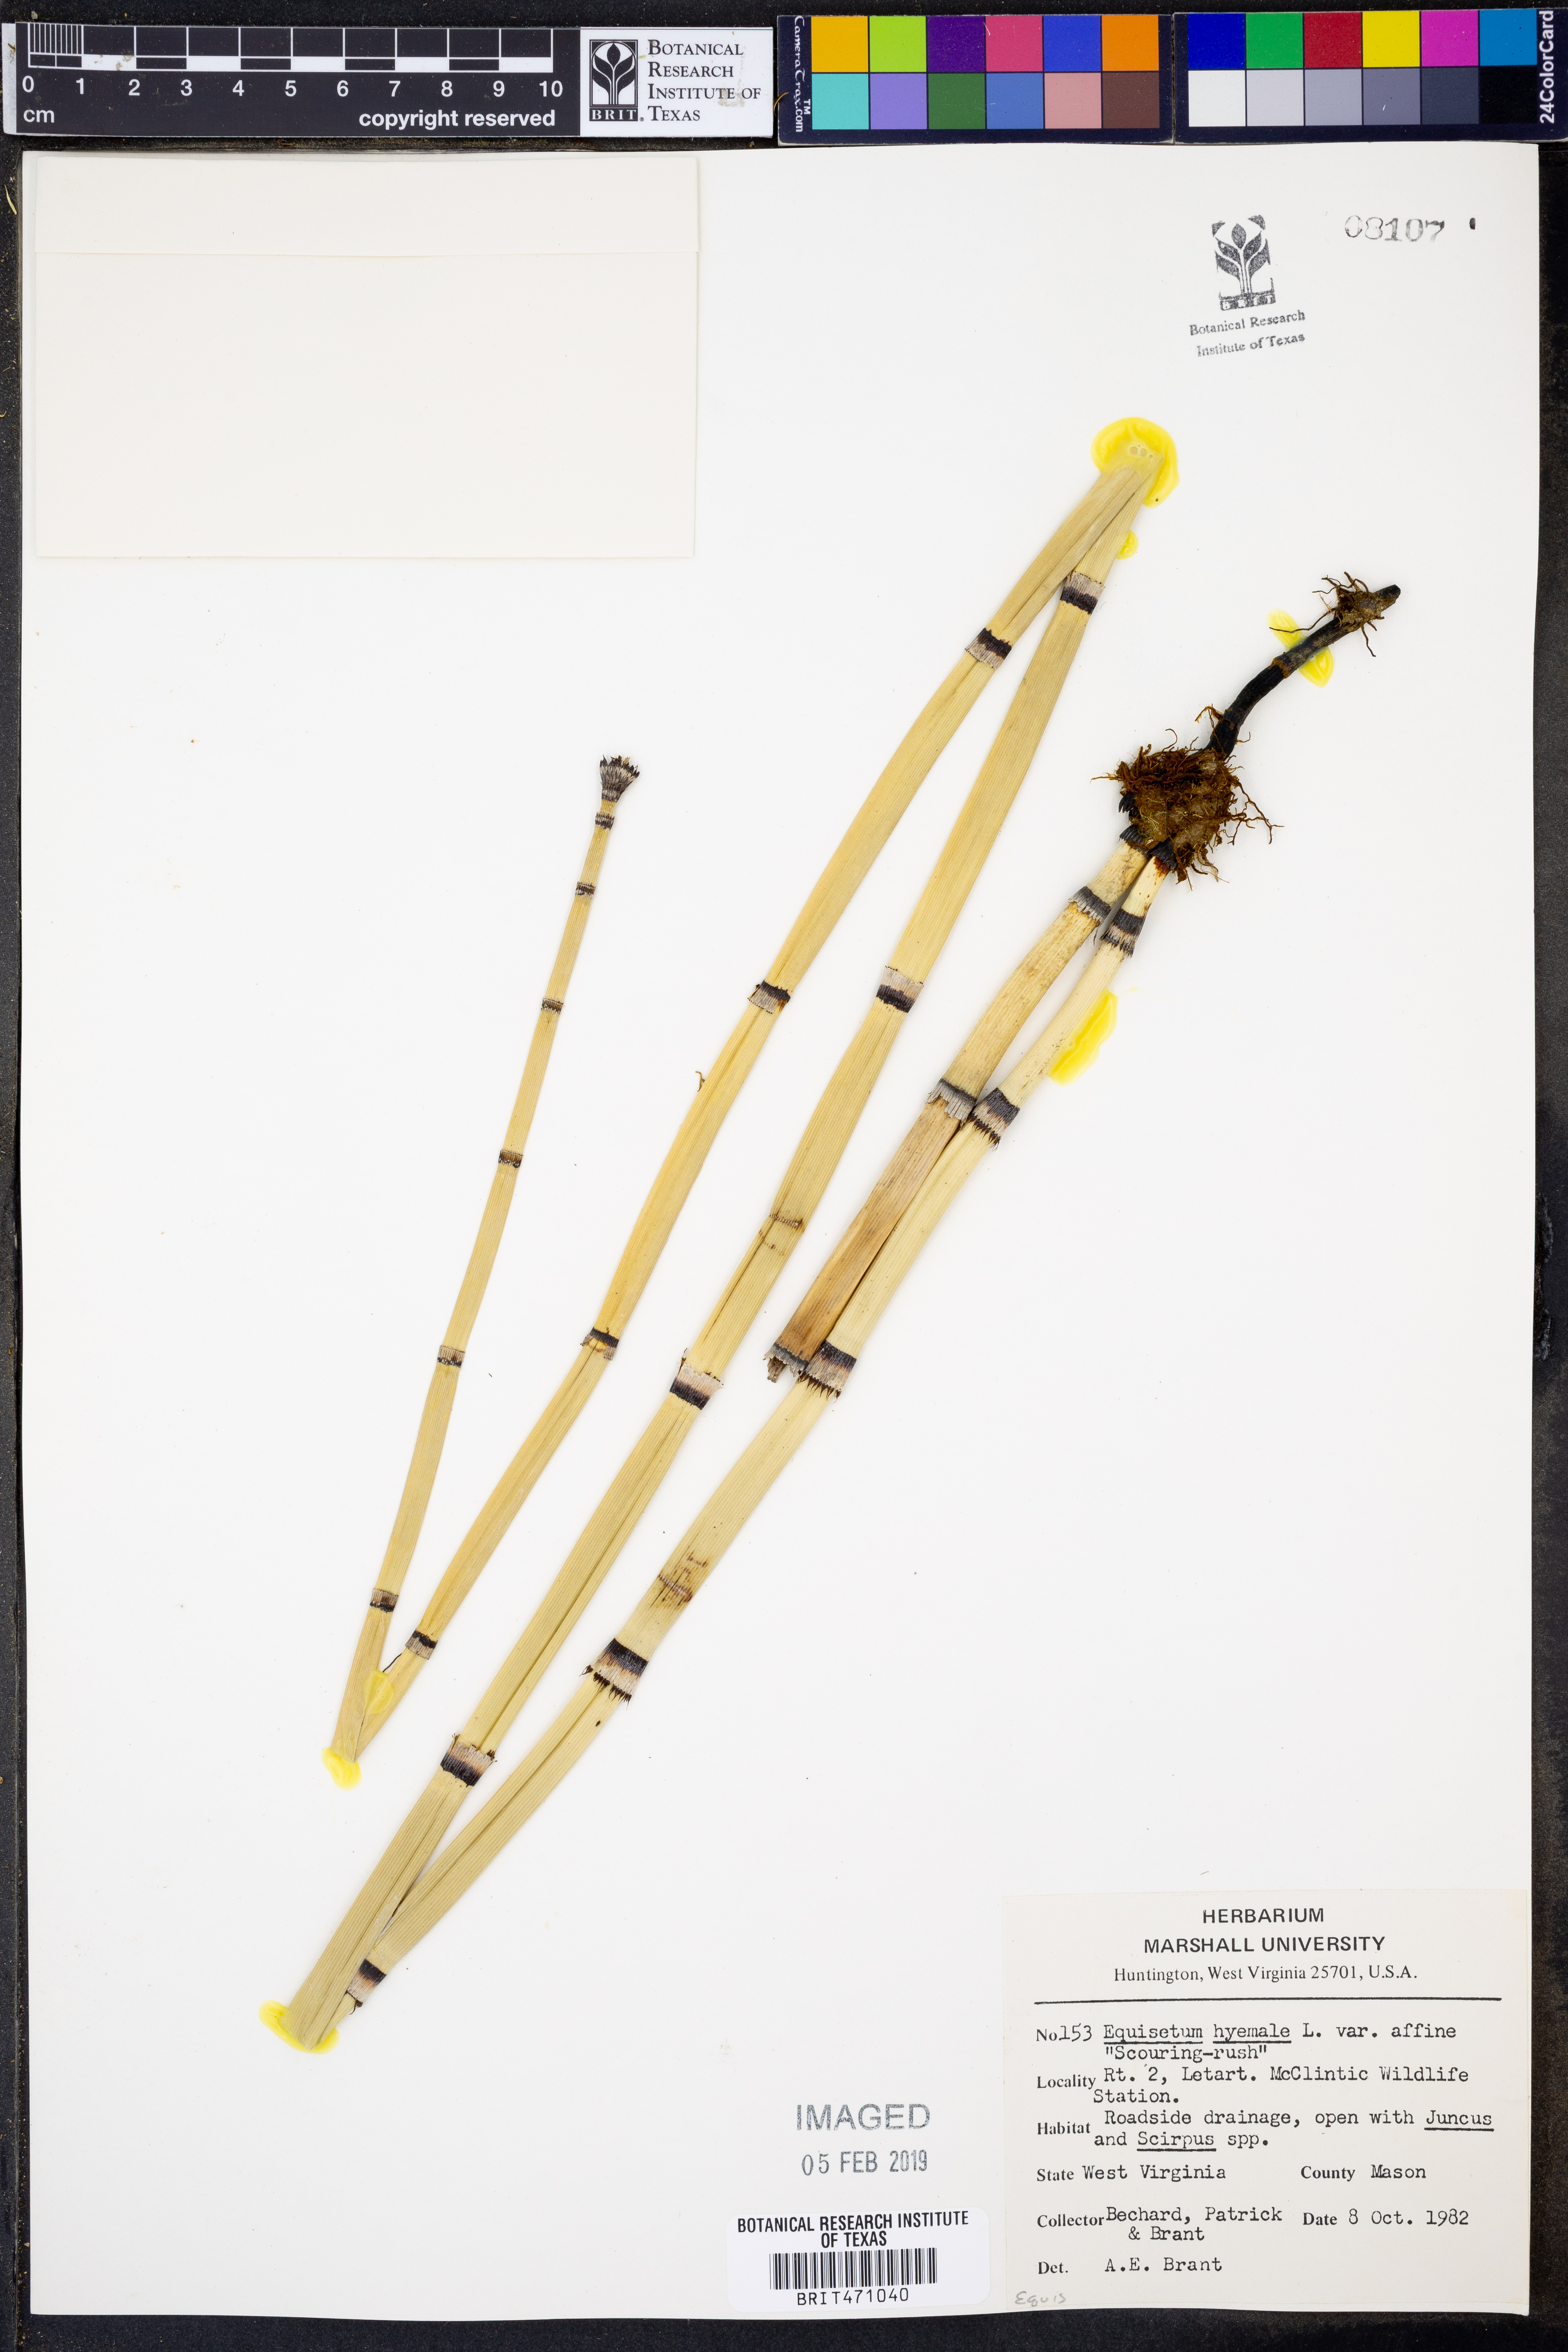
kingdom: Plantae
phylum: Tracheophyta
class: Polypodiopsida
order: Equisetales
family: Equisetaceae
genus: Equisetum
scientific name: Equisetum praealtum
